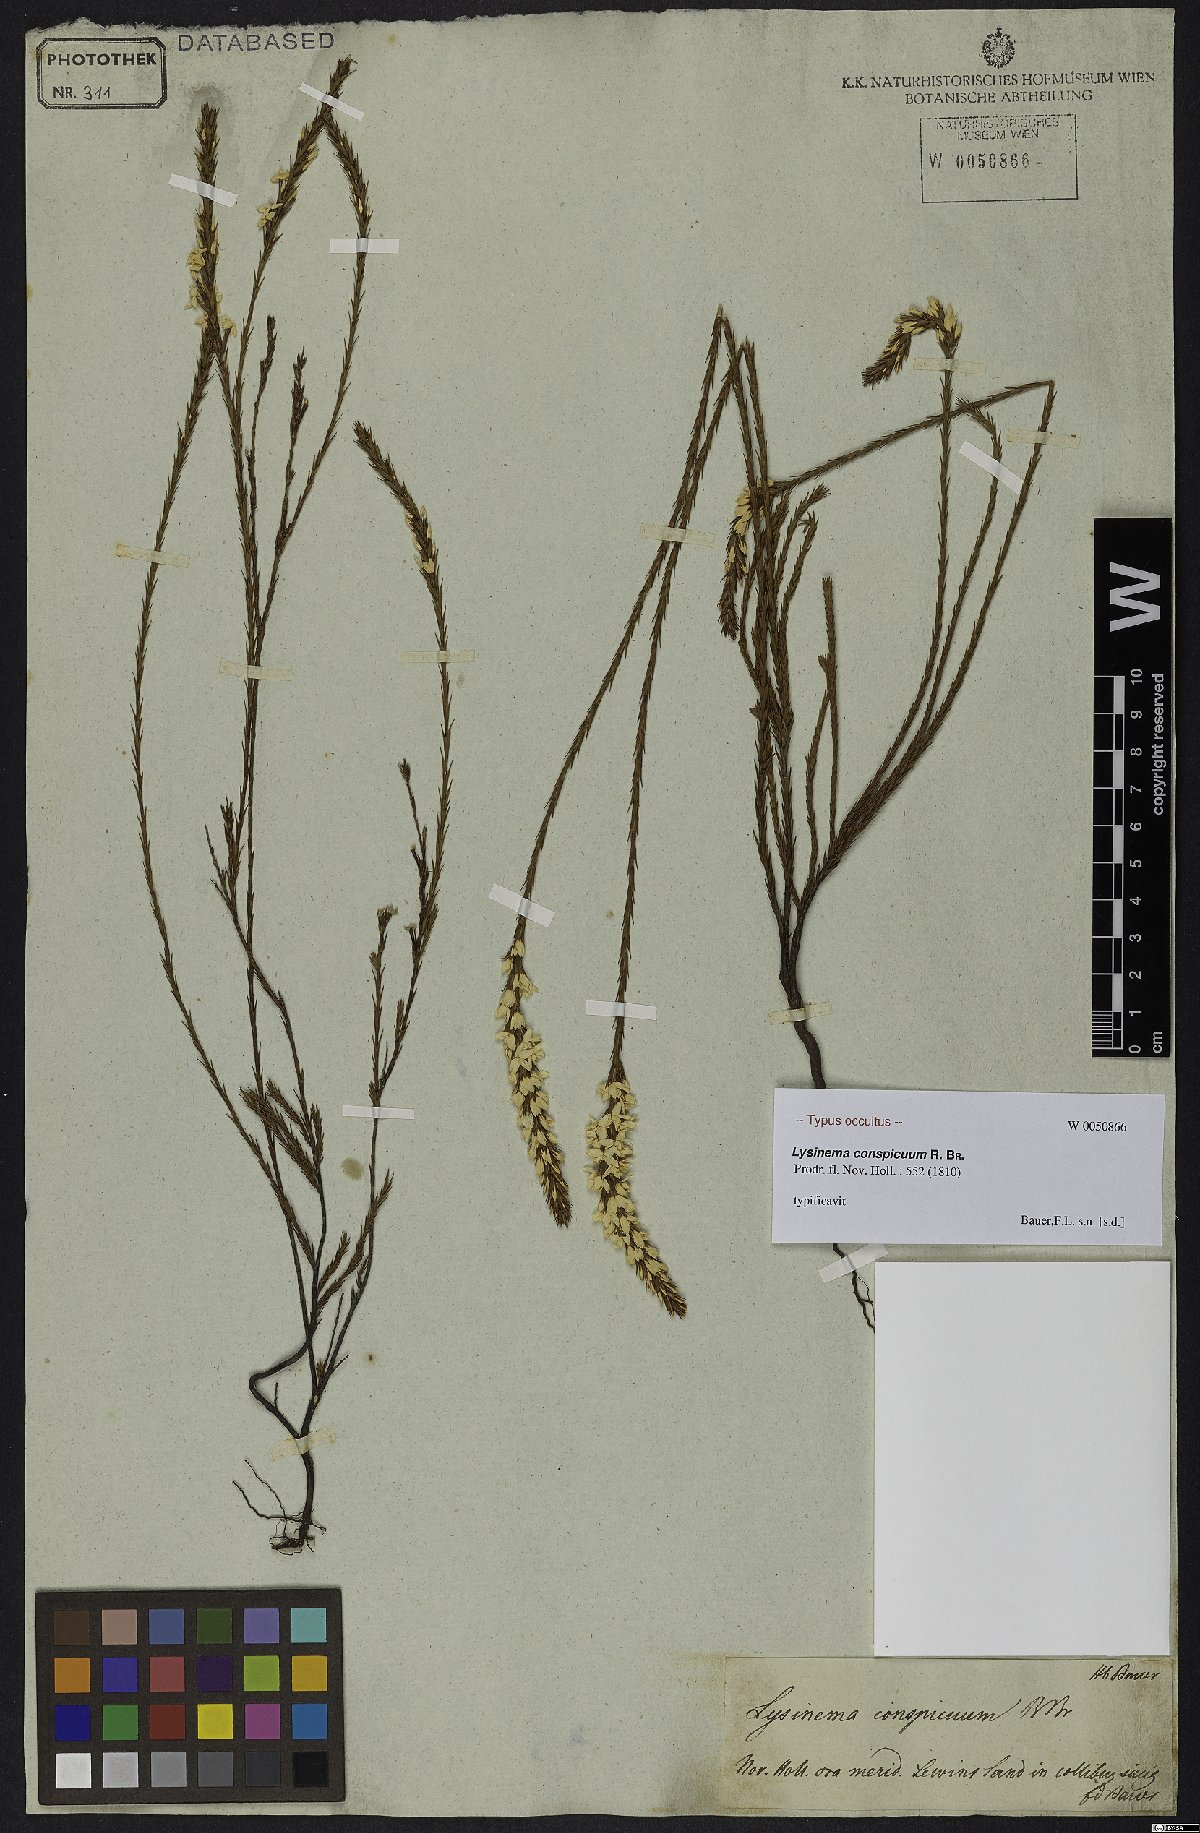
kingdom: Plantae
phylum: Tracheophyta
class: Magnoliopsida
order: Ericales
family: Ericaceae
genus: Lysinema
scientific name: Lysinema conspicuum
